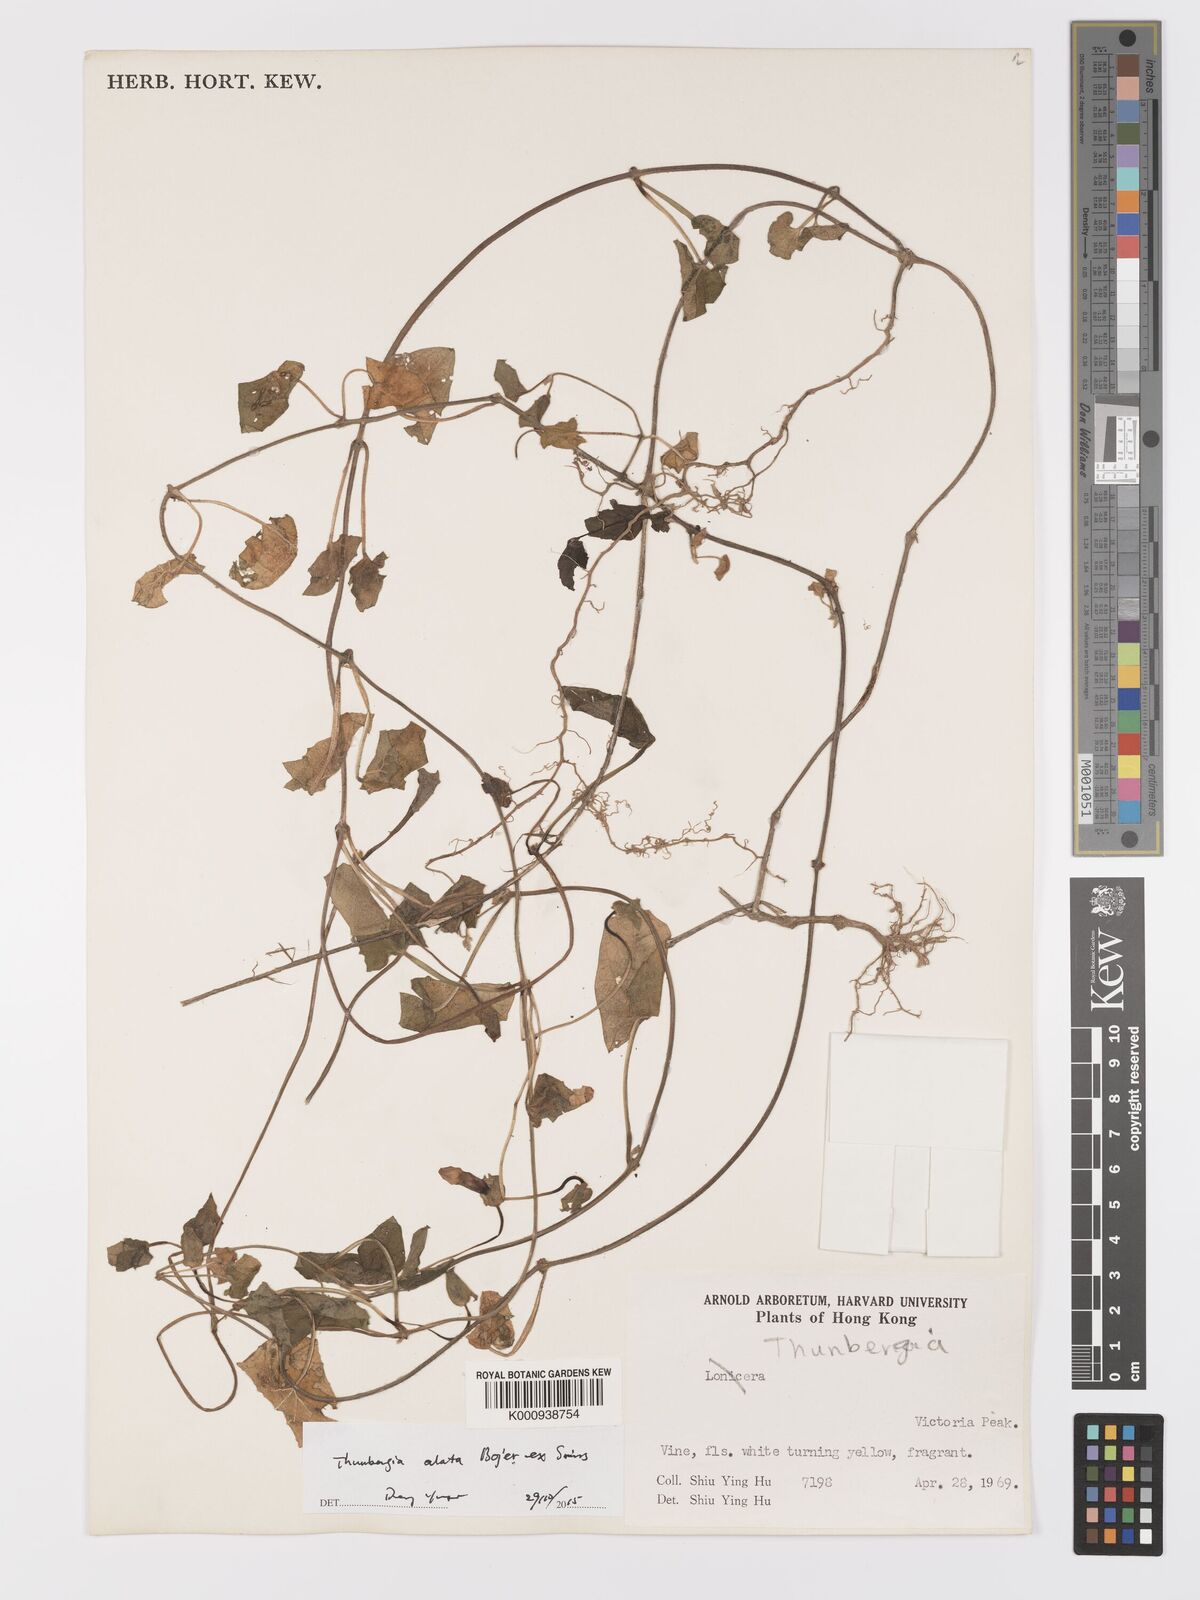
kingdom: Plantae
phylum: Tracheophyta
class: Magnoliopsida
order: Lamiales
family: Acanthaceae
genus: Thunbergia
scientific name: Thunbergia alata
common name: Blackeyed susan vine
